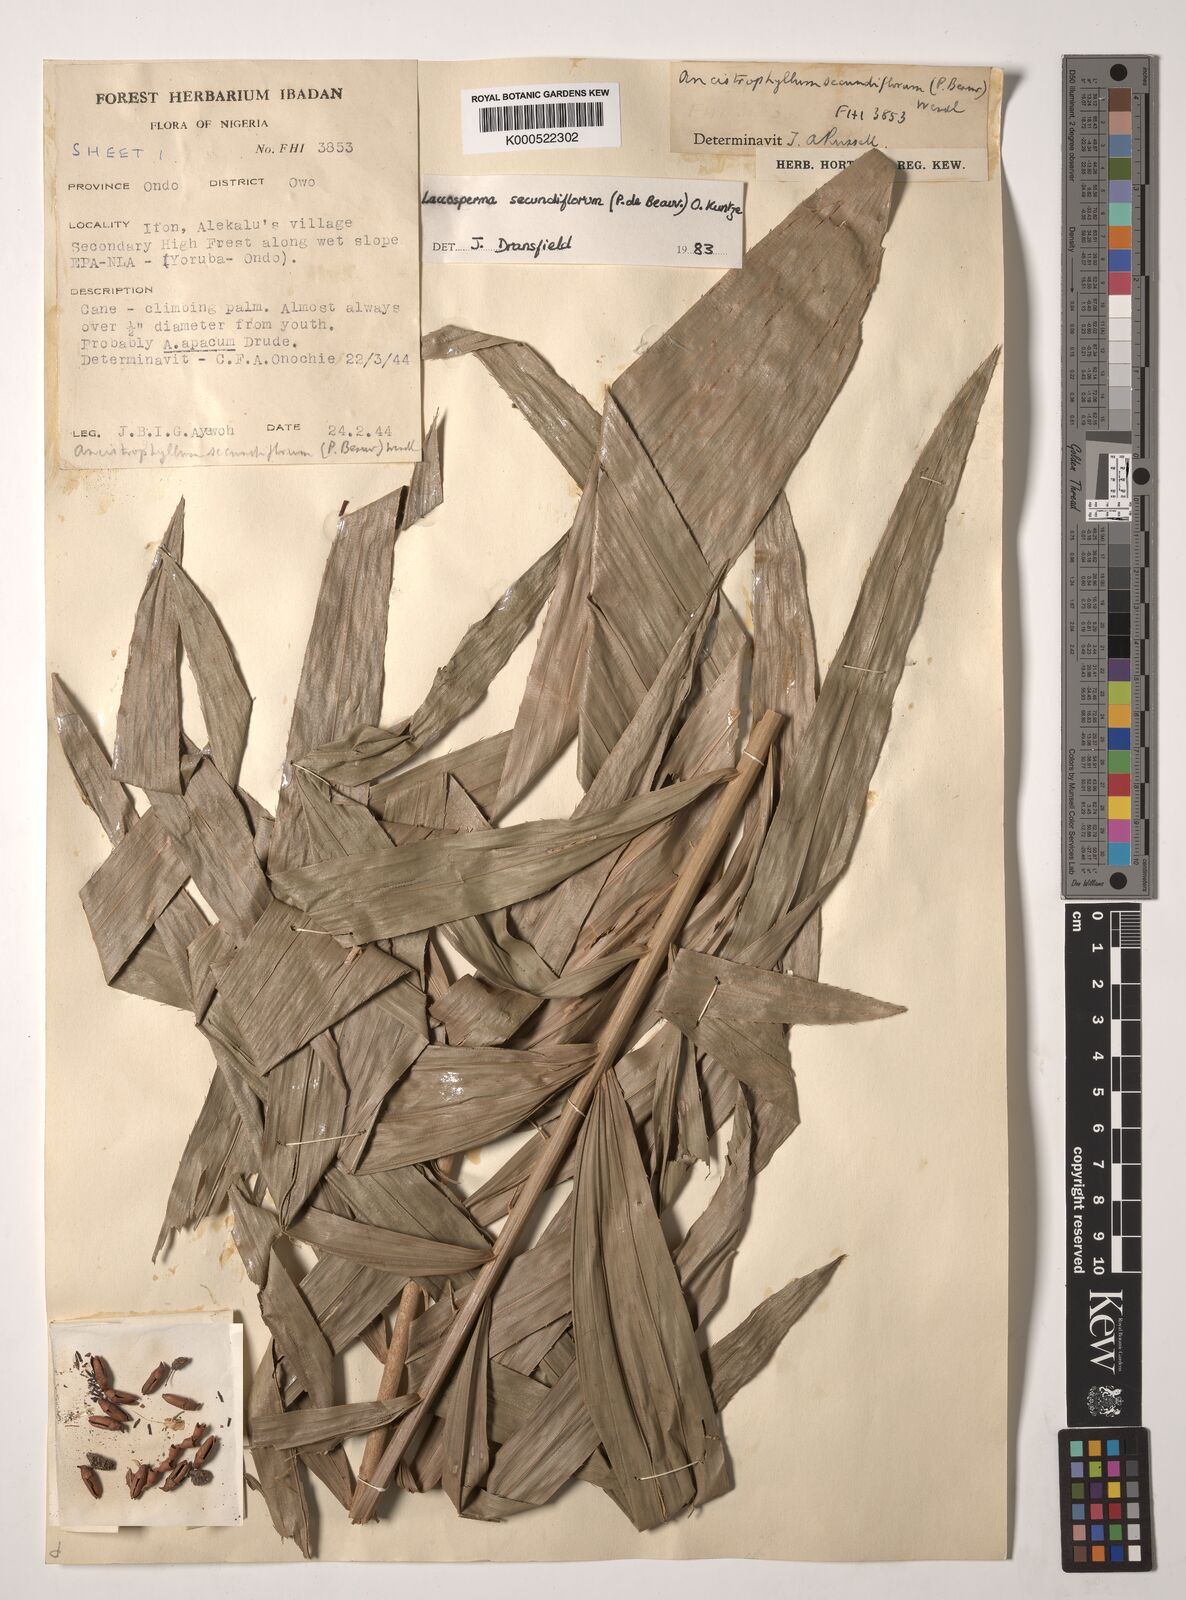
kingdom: Plantae
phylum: Tracheophyta
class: Liliopsida
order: Arecales
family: Arecaceae
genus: Laccosperma
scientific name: Laccosperma secundiflorum
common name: Rattan
